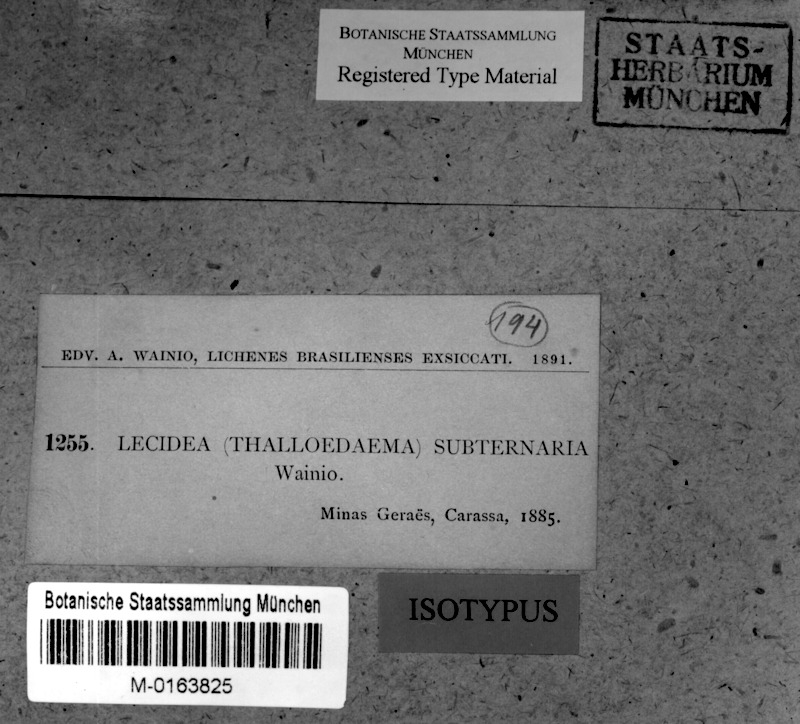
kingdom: Fungi
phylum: Ascomycota
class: Lecanoromycetes
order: Lecanorales
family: Byssolomataceae
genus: Micarea
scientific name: Micarea subternaria
